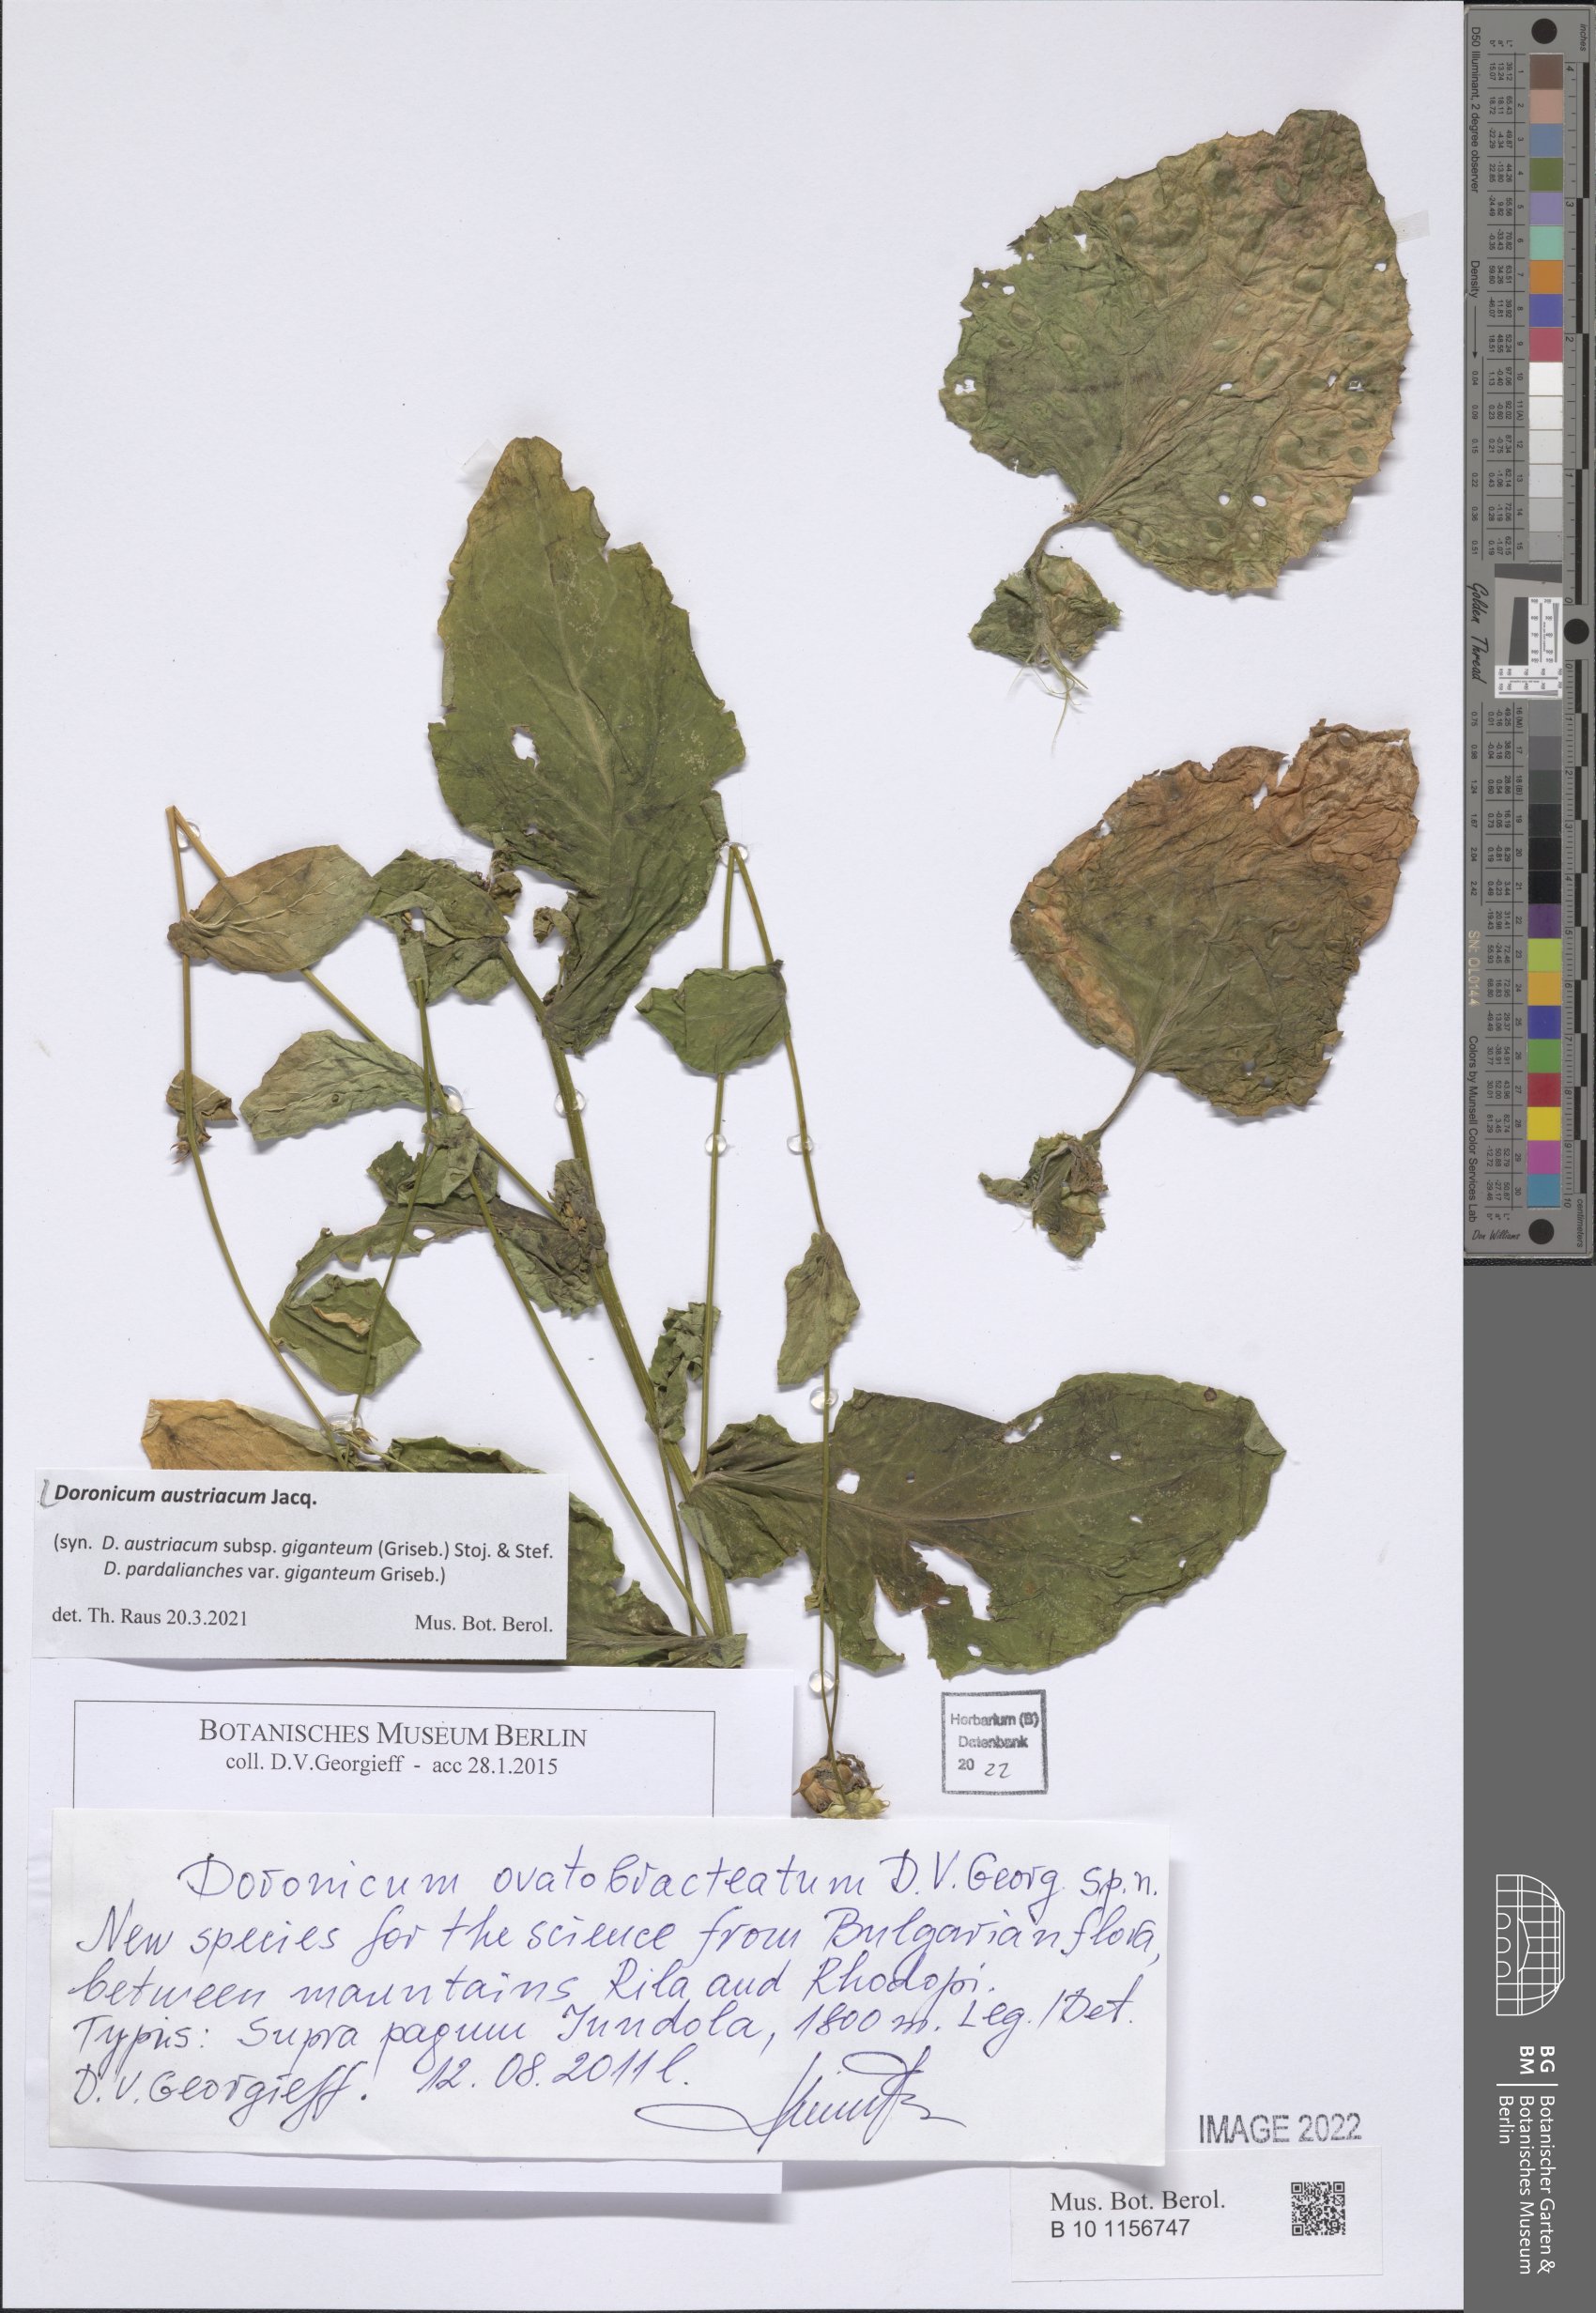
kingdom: Plantae
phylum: Tracheophyta
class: Magnoliopsida
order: Asterales
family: Asteraceae
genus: Doronicum
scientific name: Doronicum austriacum
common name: Austrian leopard's-bane
